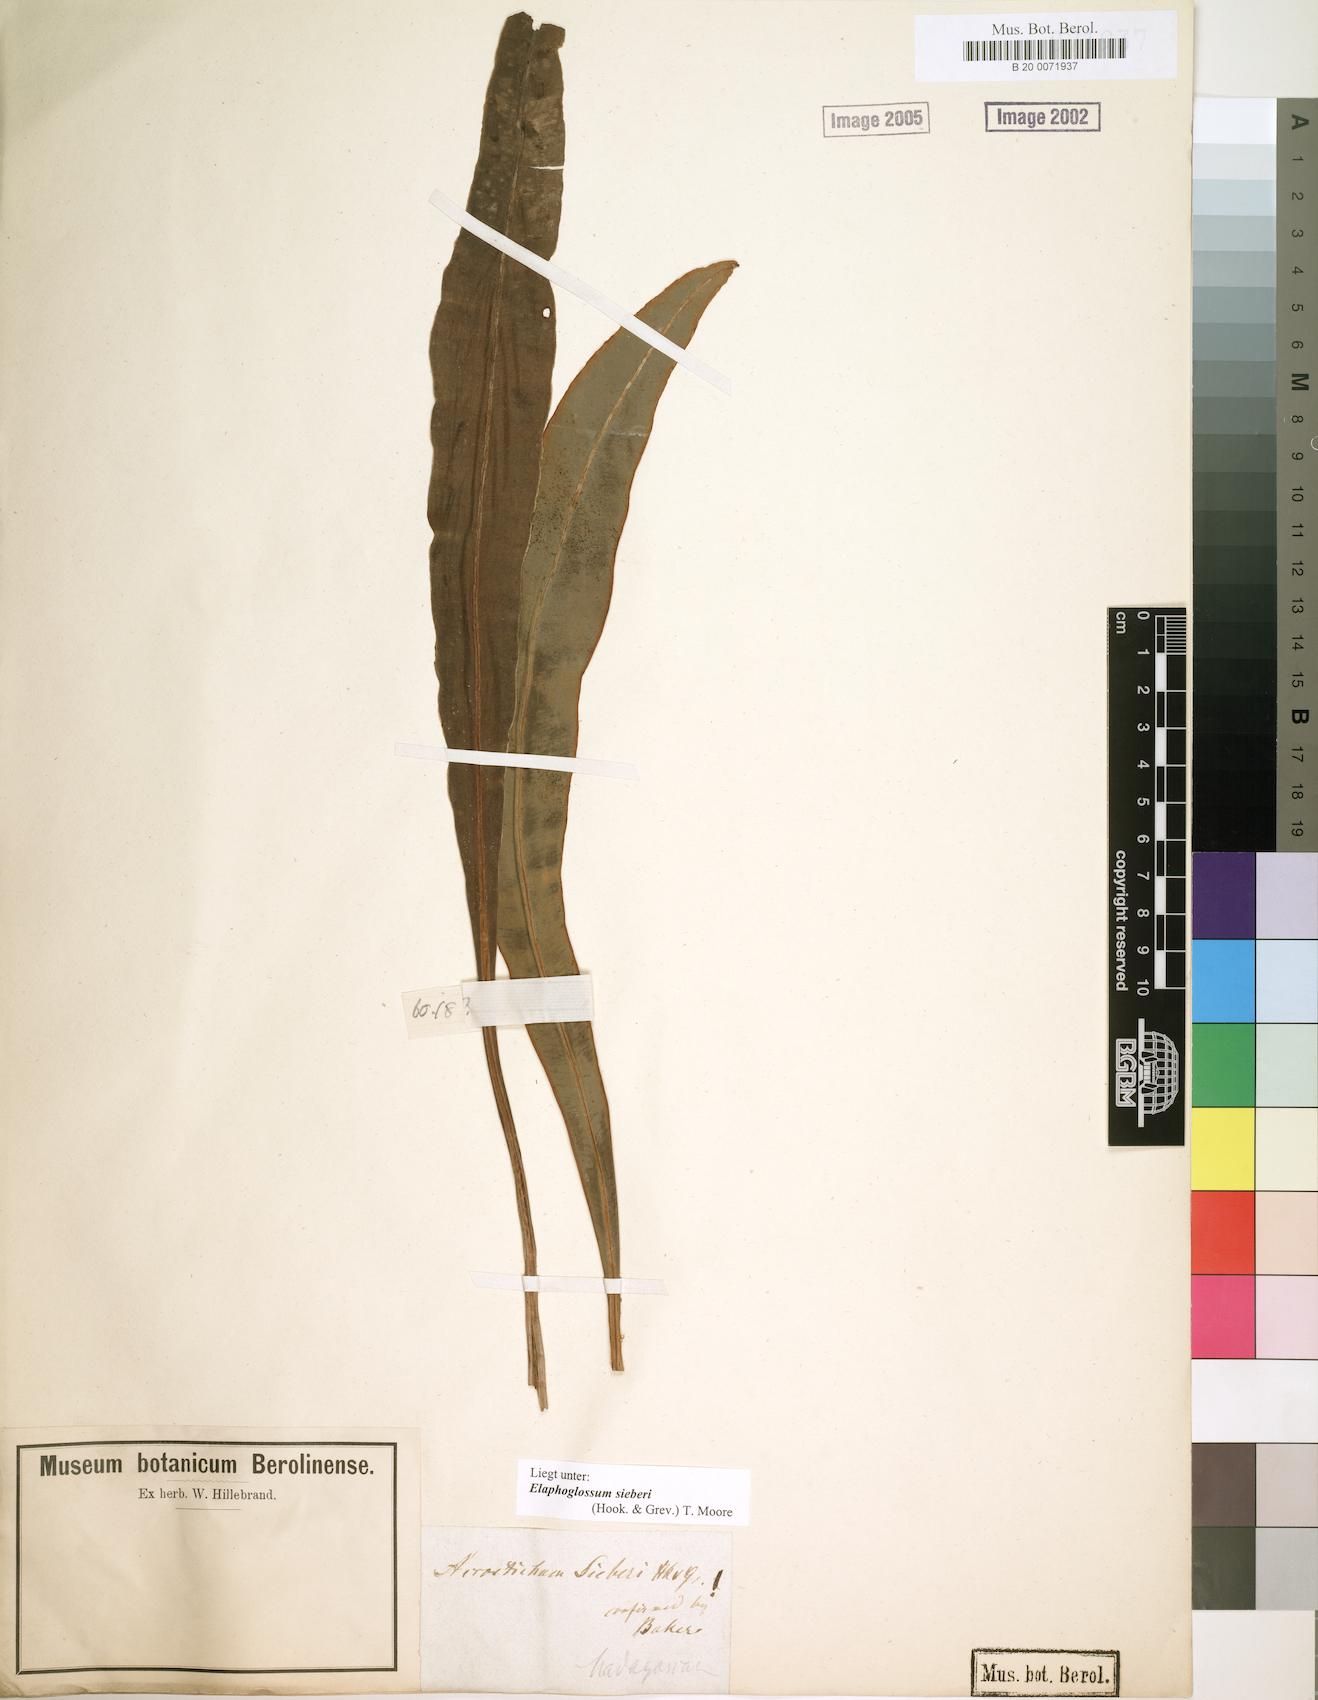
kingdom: Plantae
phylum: Tracheophyta
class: Polypodiopsida
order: Polypodiales
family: Dryopteridaceae
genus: Elaphoglossum
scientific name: Elaphoglossum sieberi
